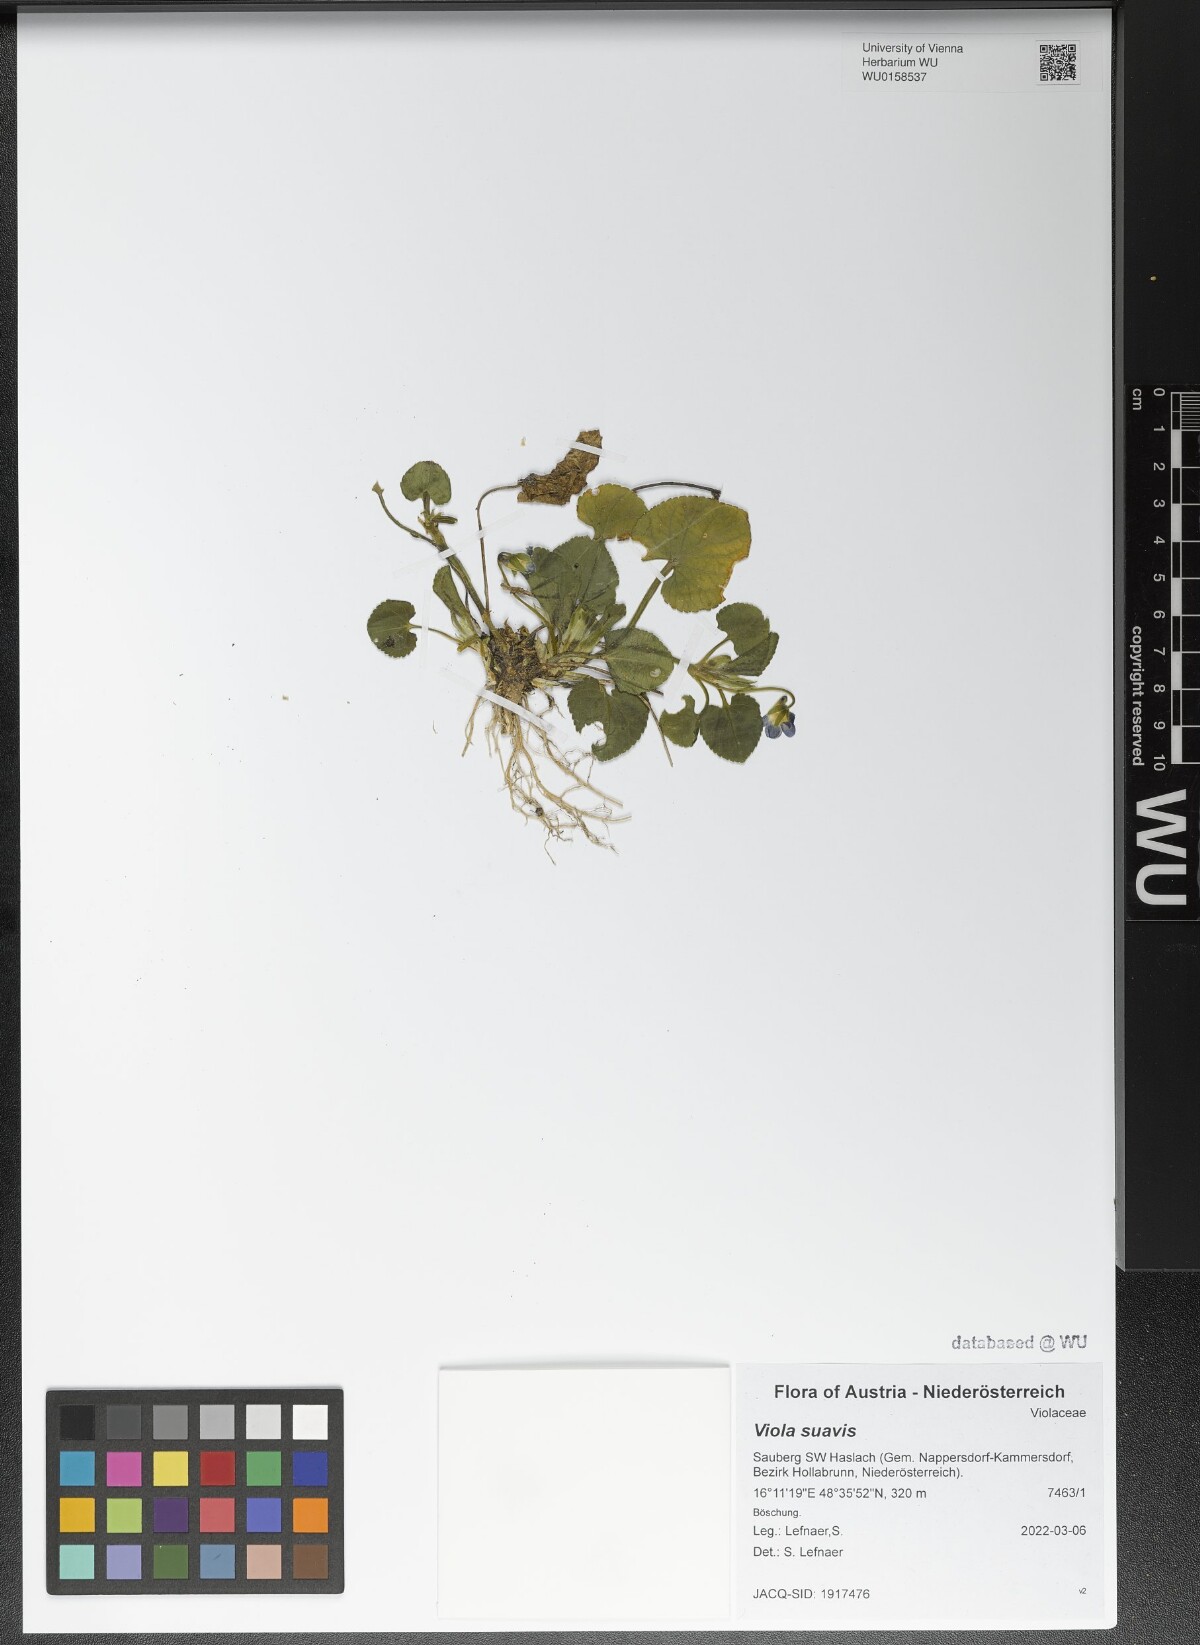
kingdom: Plantae
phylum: Tracheophyta
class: Magnoliopsida
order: Malpighiales
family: Violaceae
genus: Viola
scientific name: Viola suavis
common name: Russian violet
